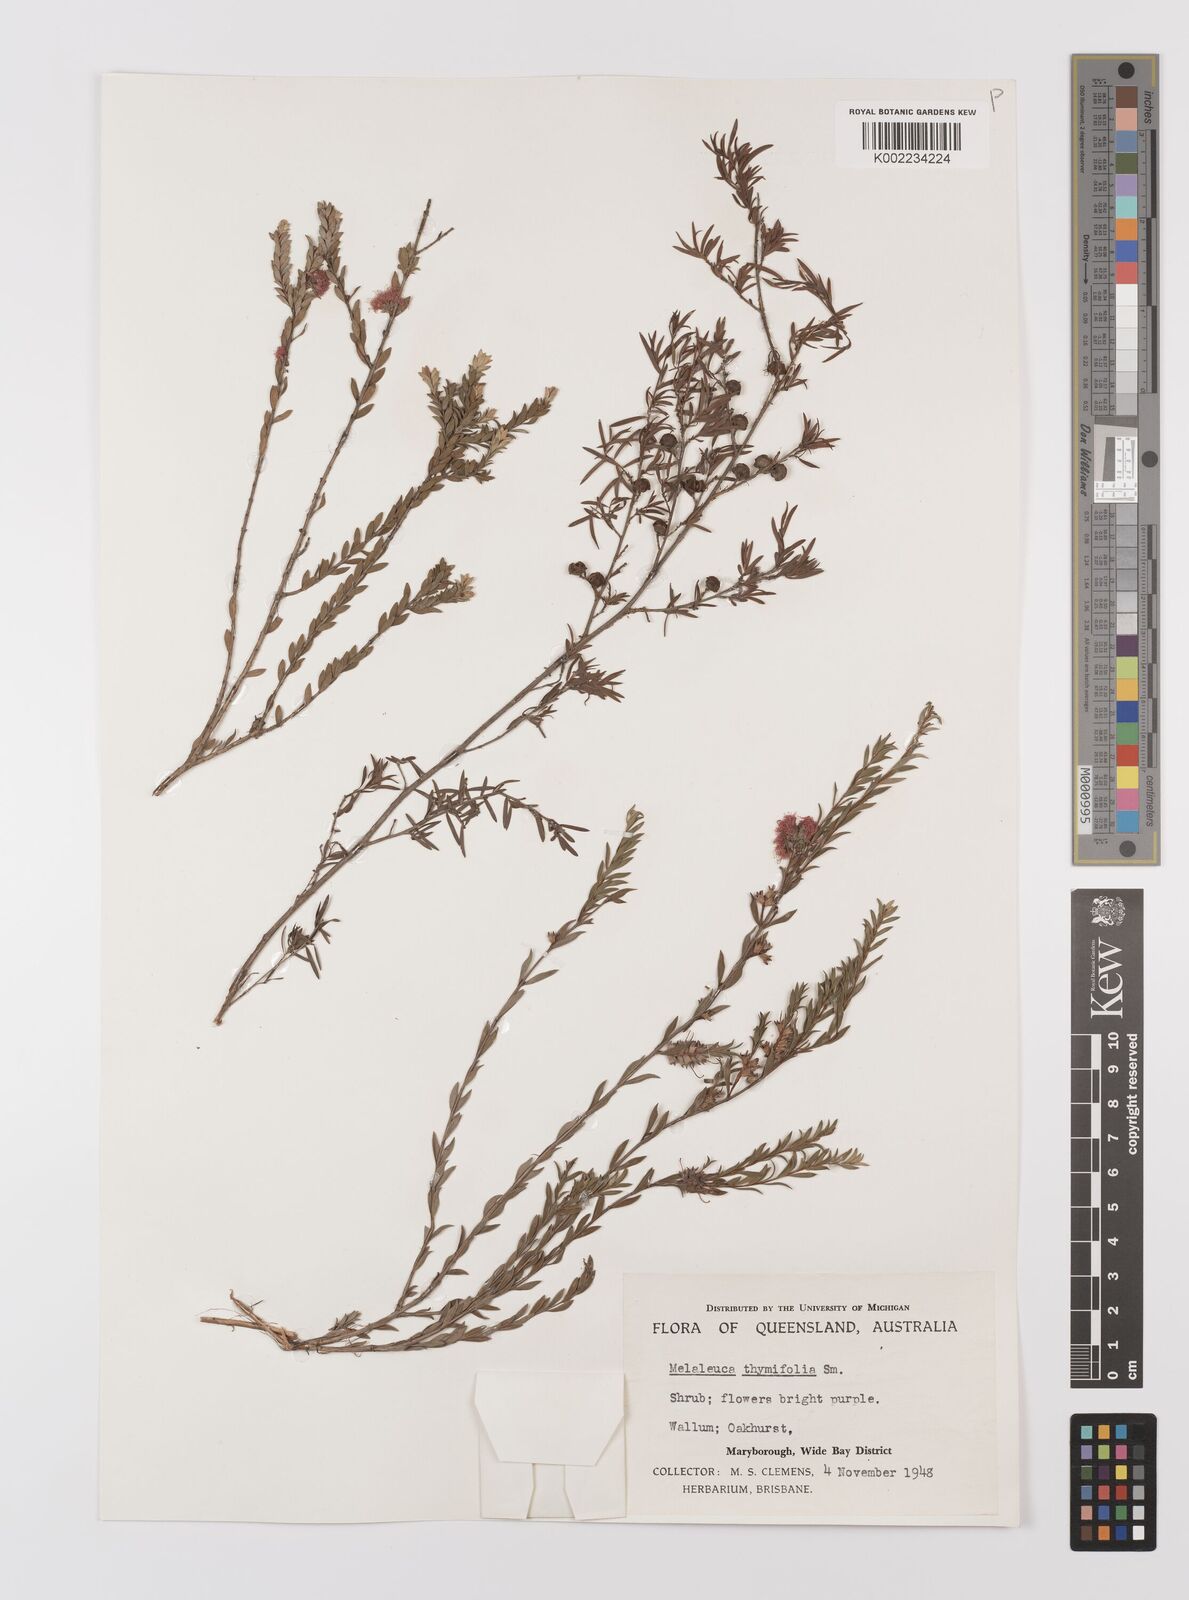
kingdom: Plantae
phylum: Tracheophyta
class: Magnoliopsida
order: Myrtales
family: Myrtaceae
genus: Melaleuca
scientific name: Melaleuca thymifolia
